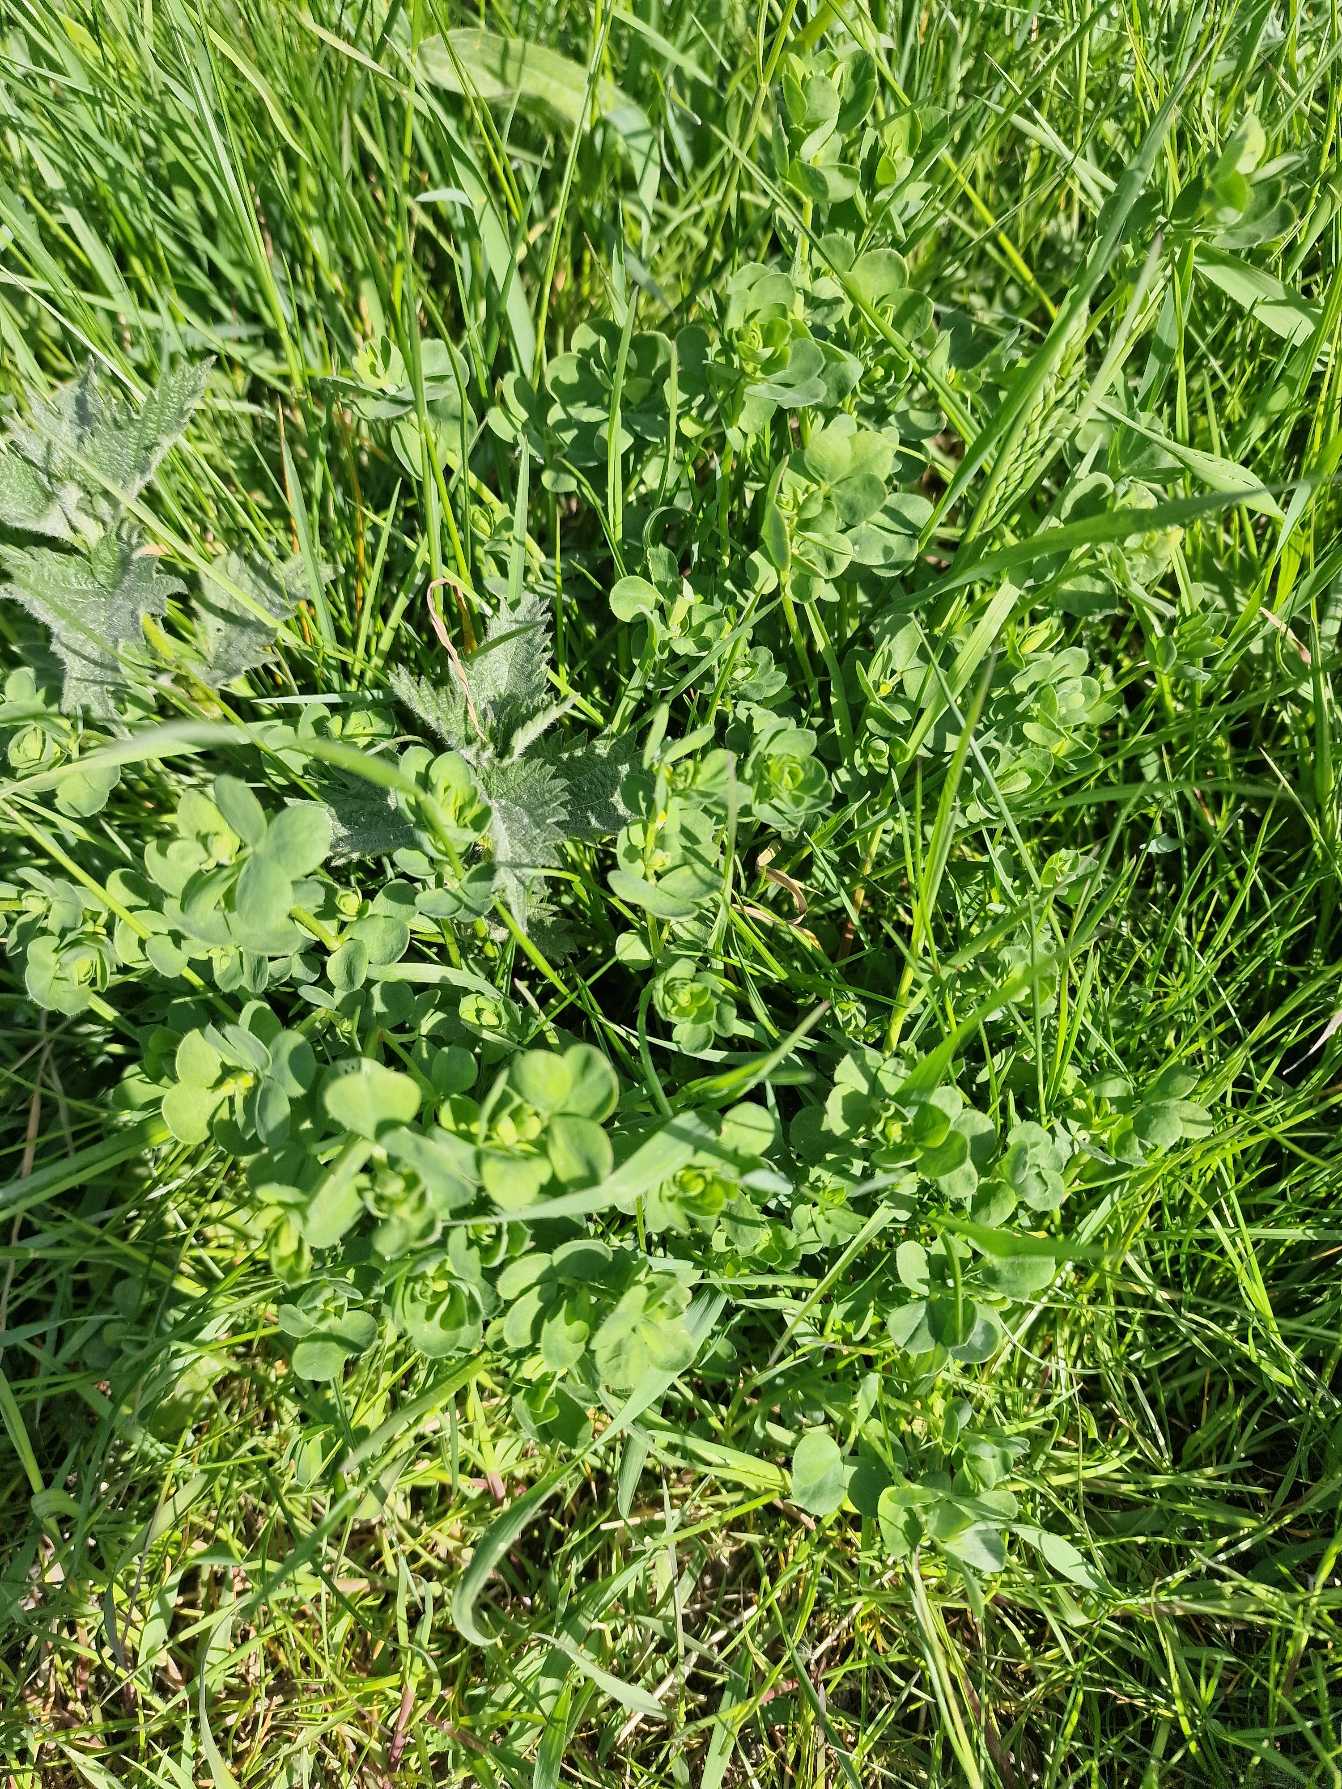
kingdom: Plantae
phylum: Tracheophyta
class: Magnoliopsida
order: Fabales
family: Fabaceae
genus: Lotus
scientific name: Lotus corniculatus
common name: Almindelig kællingetand
